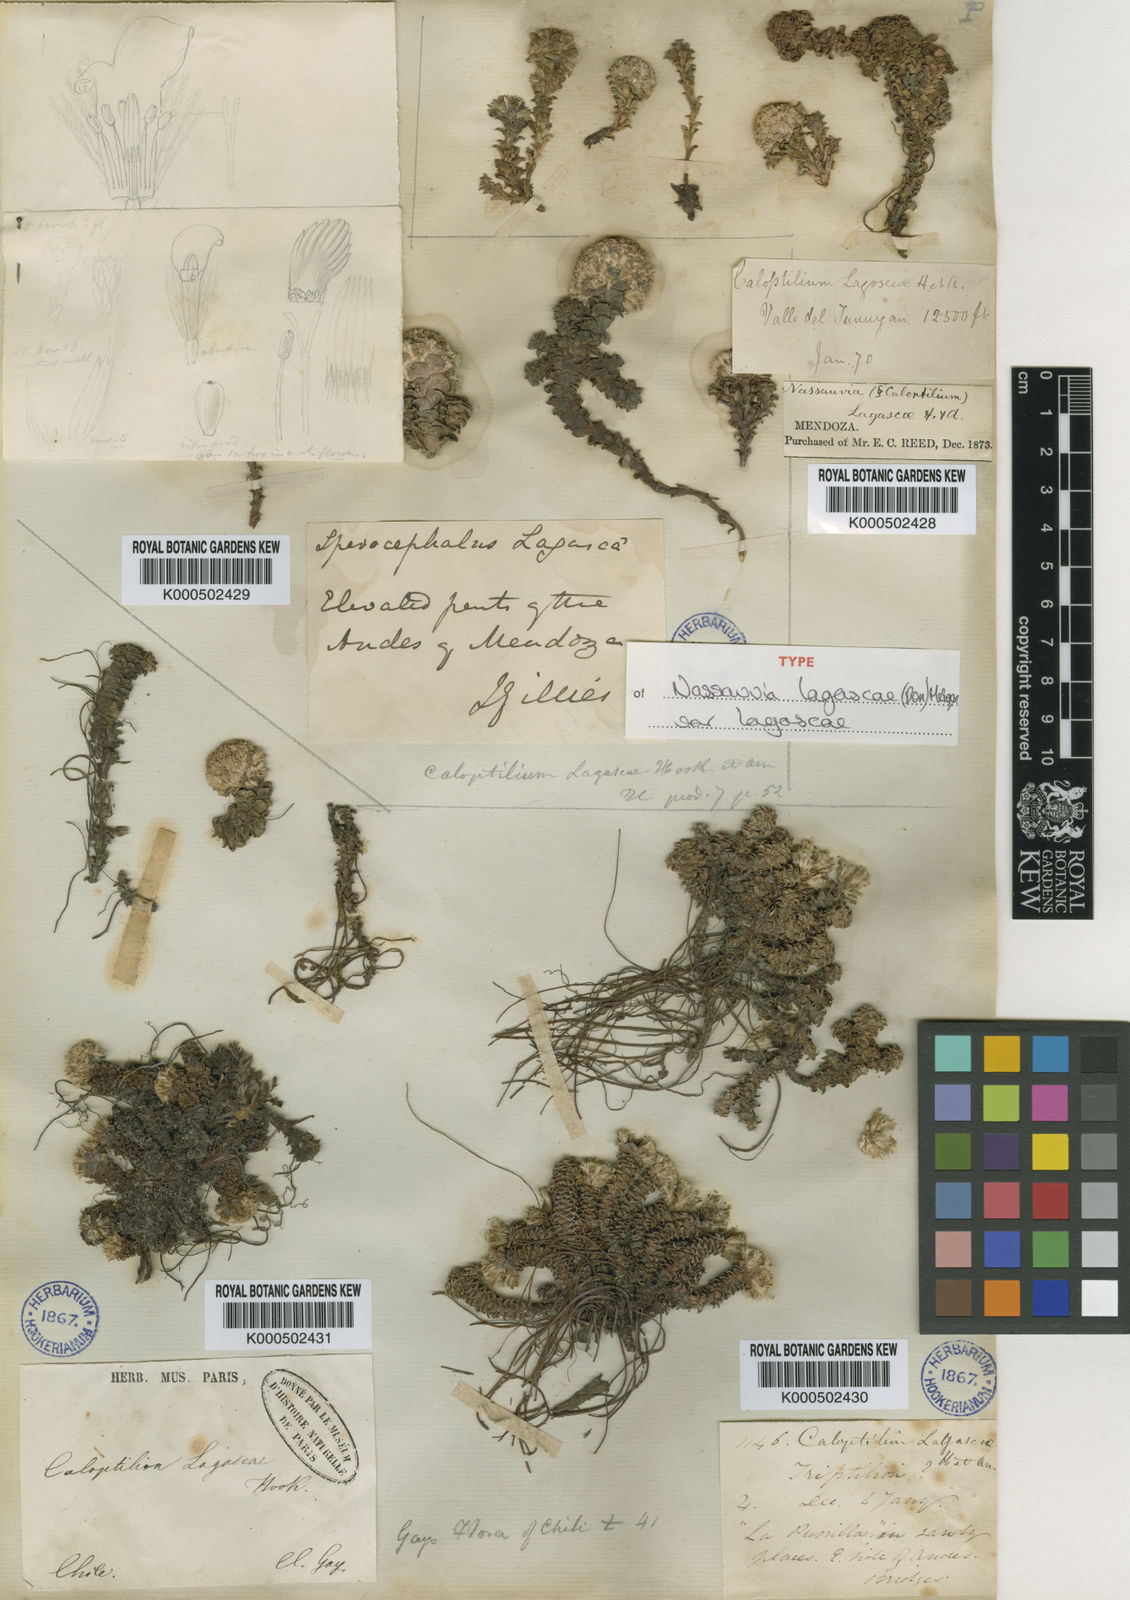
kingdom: Plantae
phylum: Tracheophyta
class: Magnoliopsida
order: Asterales
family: Asteraceae
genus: Nassauvia
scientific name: Nassauvia lagascae
